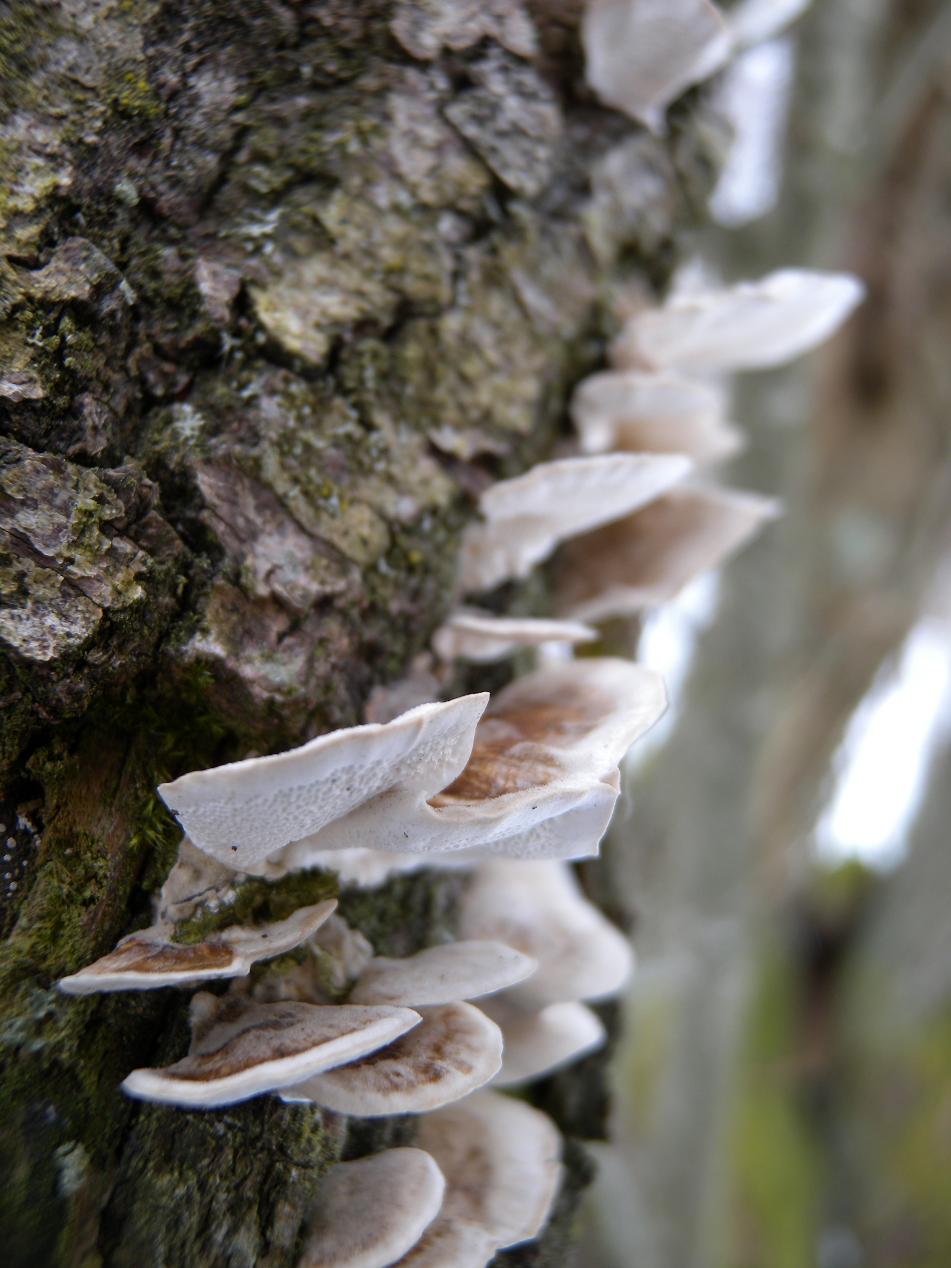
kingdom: Fungi
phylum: Basidiomycota
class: Agaricomycetes
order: Polyporales
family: Polyporaceae
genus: Trametes
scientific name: Trametes versicolor
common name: broget læderporesvamp
